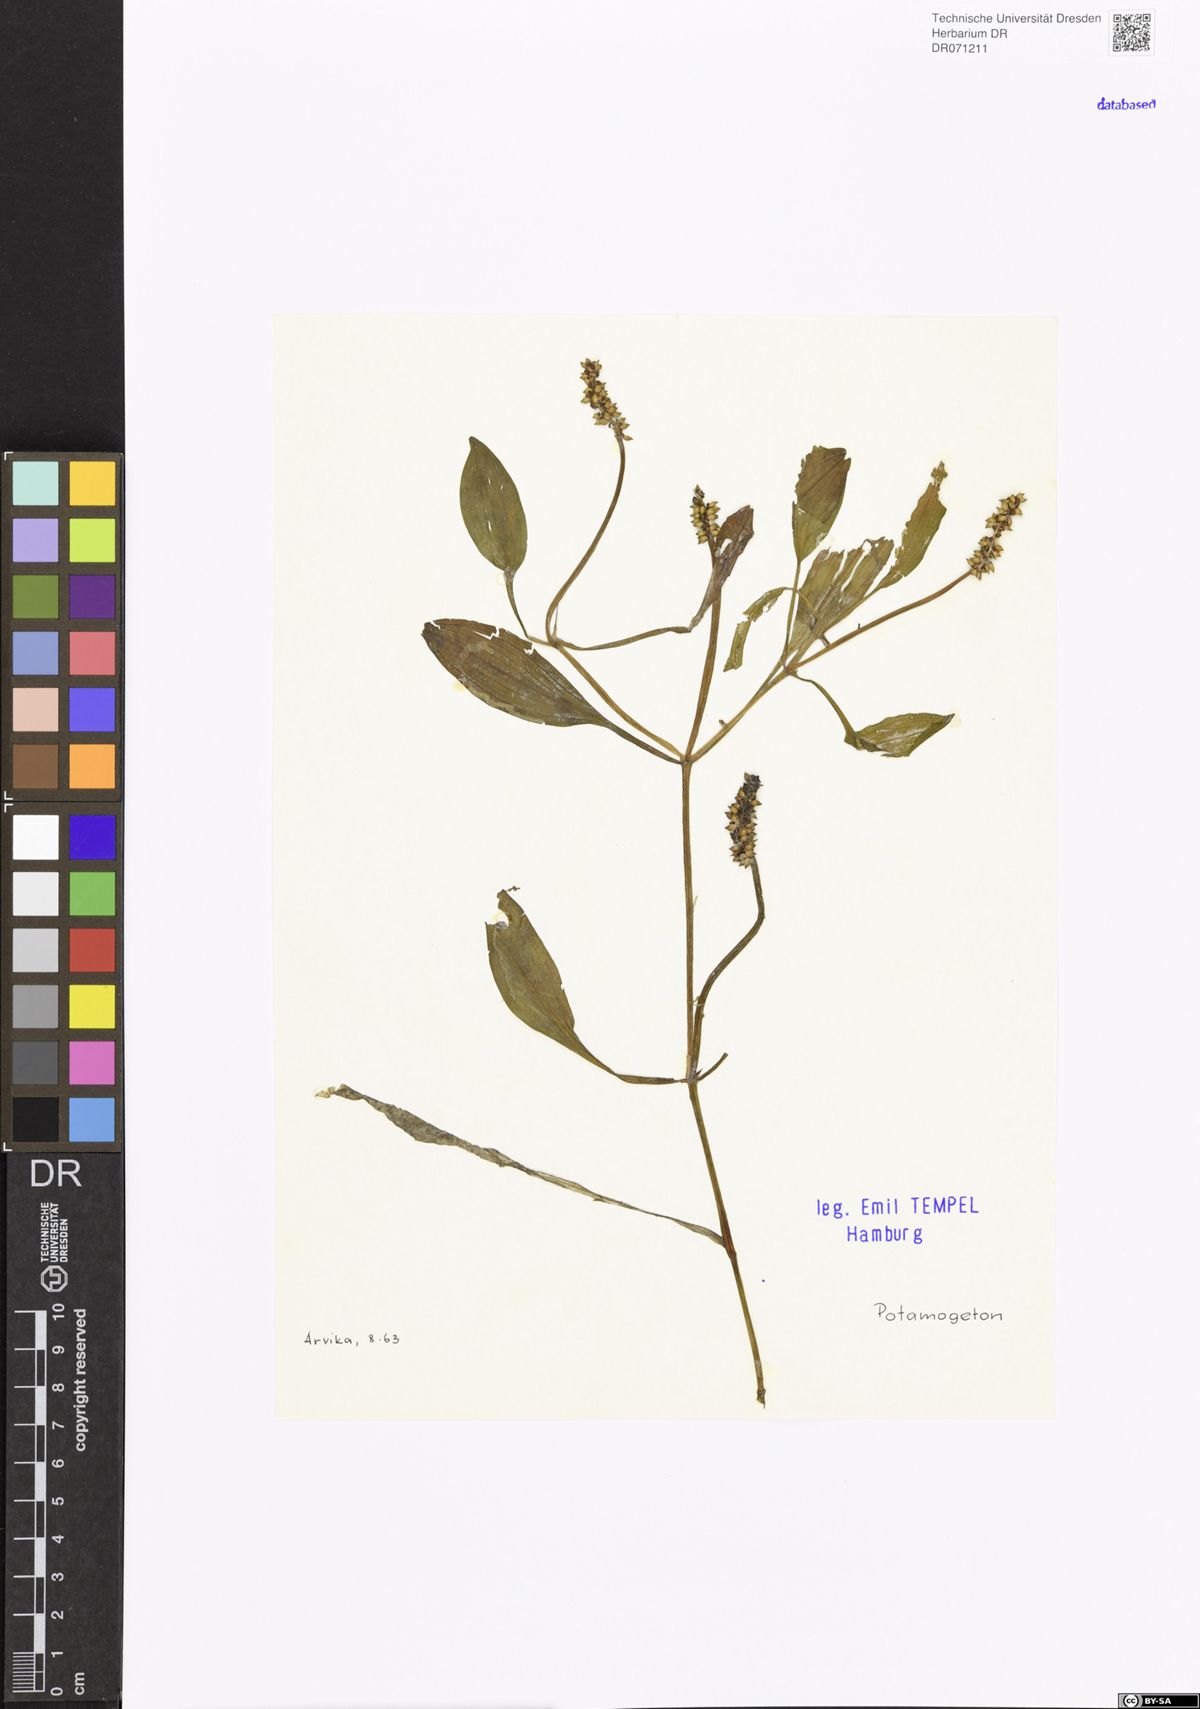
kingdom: Plantae
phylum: Tracheophyta
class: Liliopsida
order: Alismatales
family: Potamogetonaceae
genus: Potamogeton
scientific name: Potamogeton
